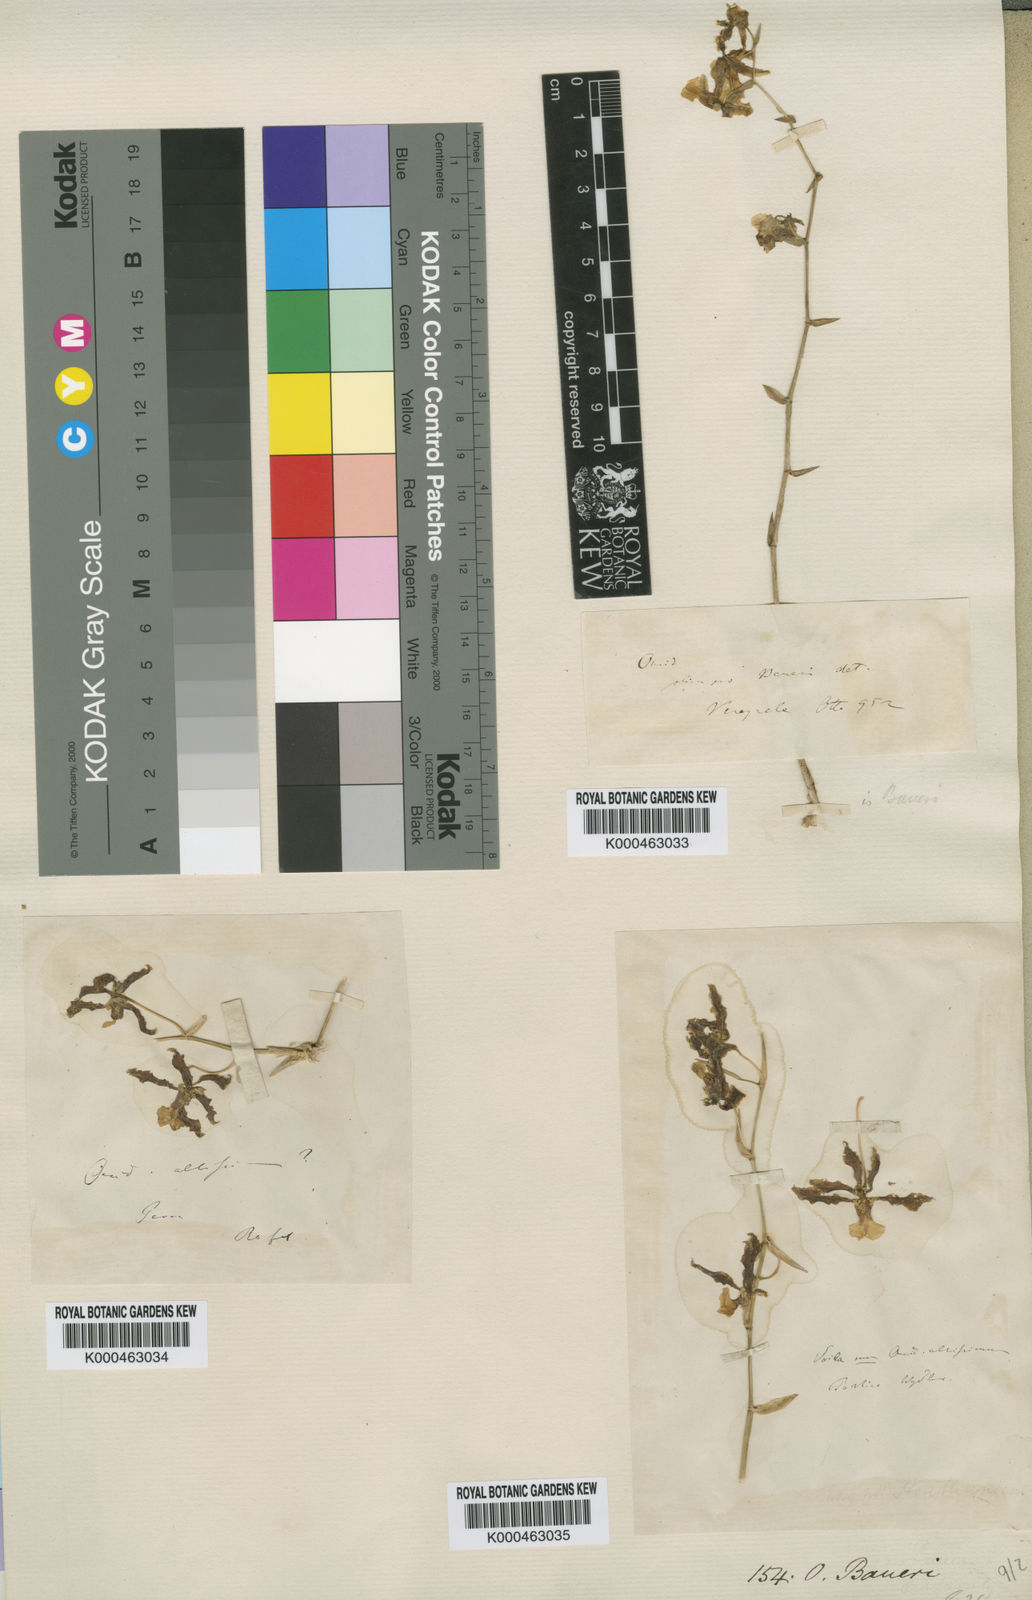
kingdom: Plantae
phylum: Tracheophyta
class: Liliopsida
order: Asparagales
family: Orchidaceae
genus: Oncidium
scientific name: Oncidium baueri
